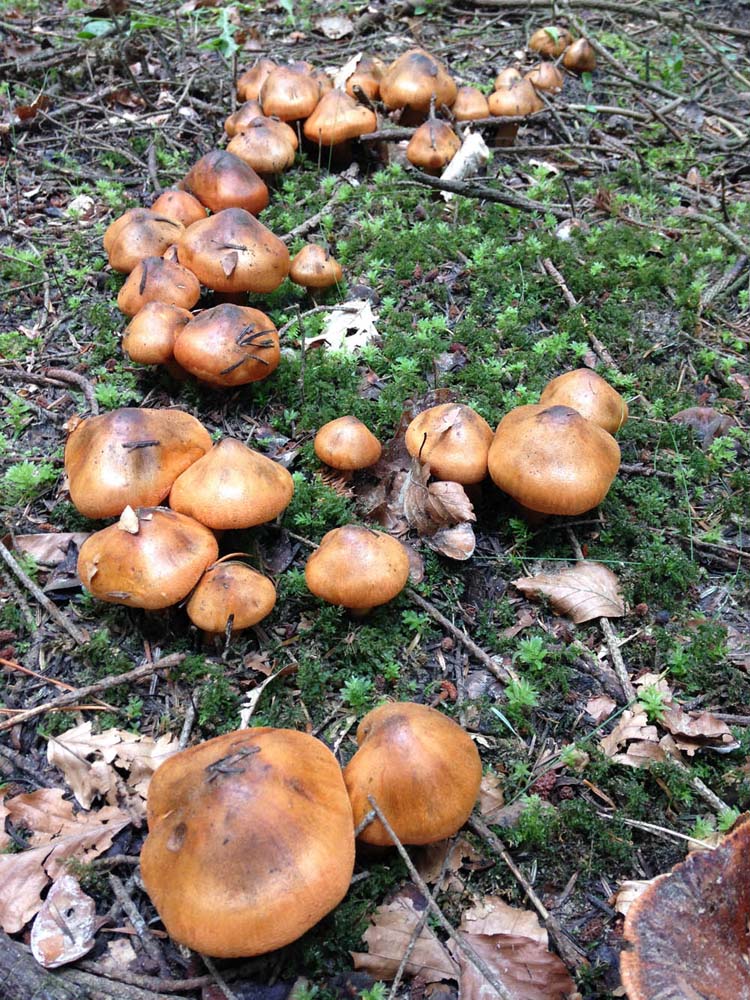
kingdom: Fungi
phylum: Basidiomycota
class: Agaricomycetes
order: Agaricales
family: Tricholomataceae
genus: Tricholoma
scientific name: Tricholoma aurantium
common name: orangegul ridderhat
